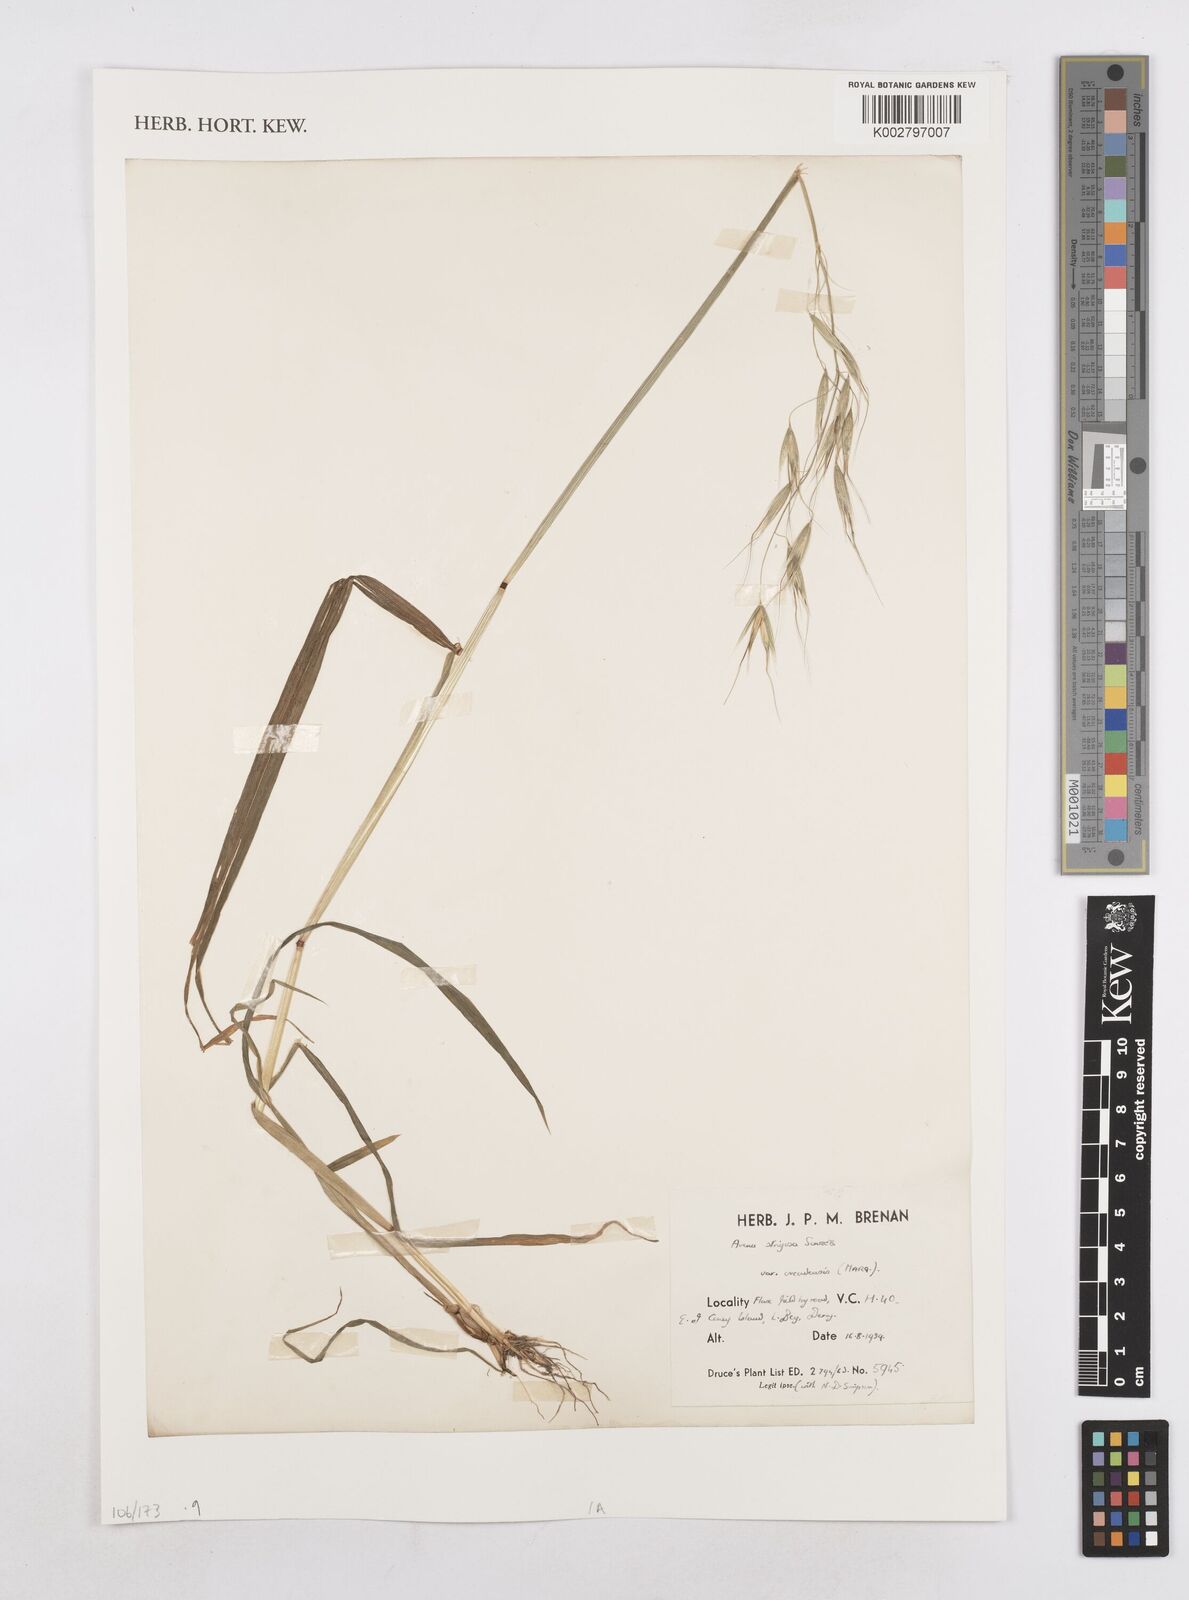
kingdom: Plantae
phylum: Tracheophyta
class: Liliopsida
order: Poales
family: Poaceae
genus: Avena
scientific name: Avena strigosa
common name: Bristle oat
